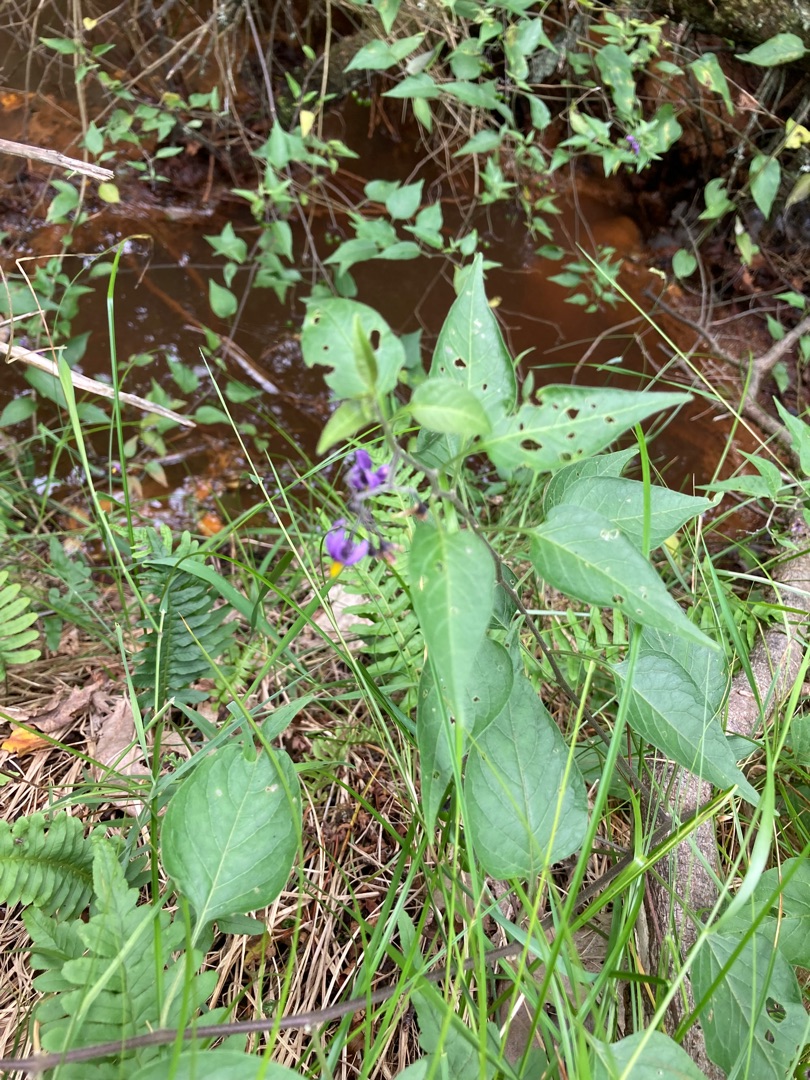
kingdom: Plantae
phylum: Tracheophyta
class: Magnoliopsida
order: Solanales
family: Solanaceae
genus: Solanum
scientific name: Solanum dulcamara
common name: Bittersød natskygge
